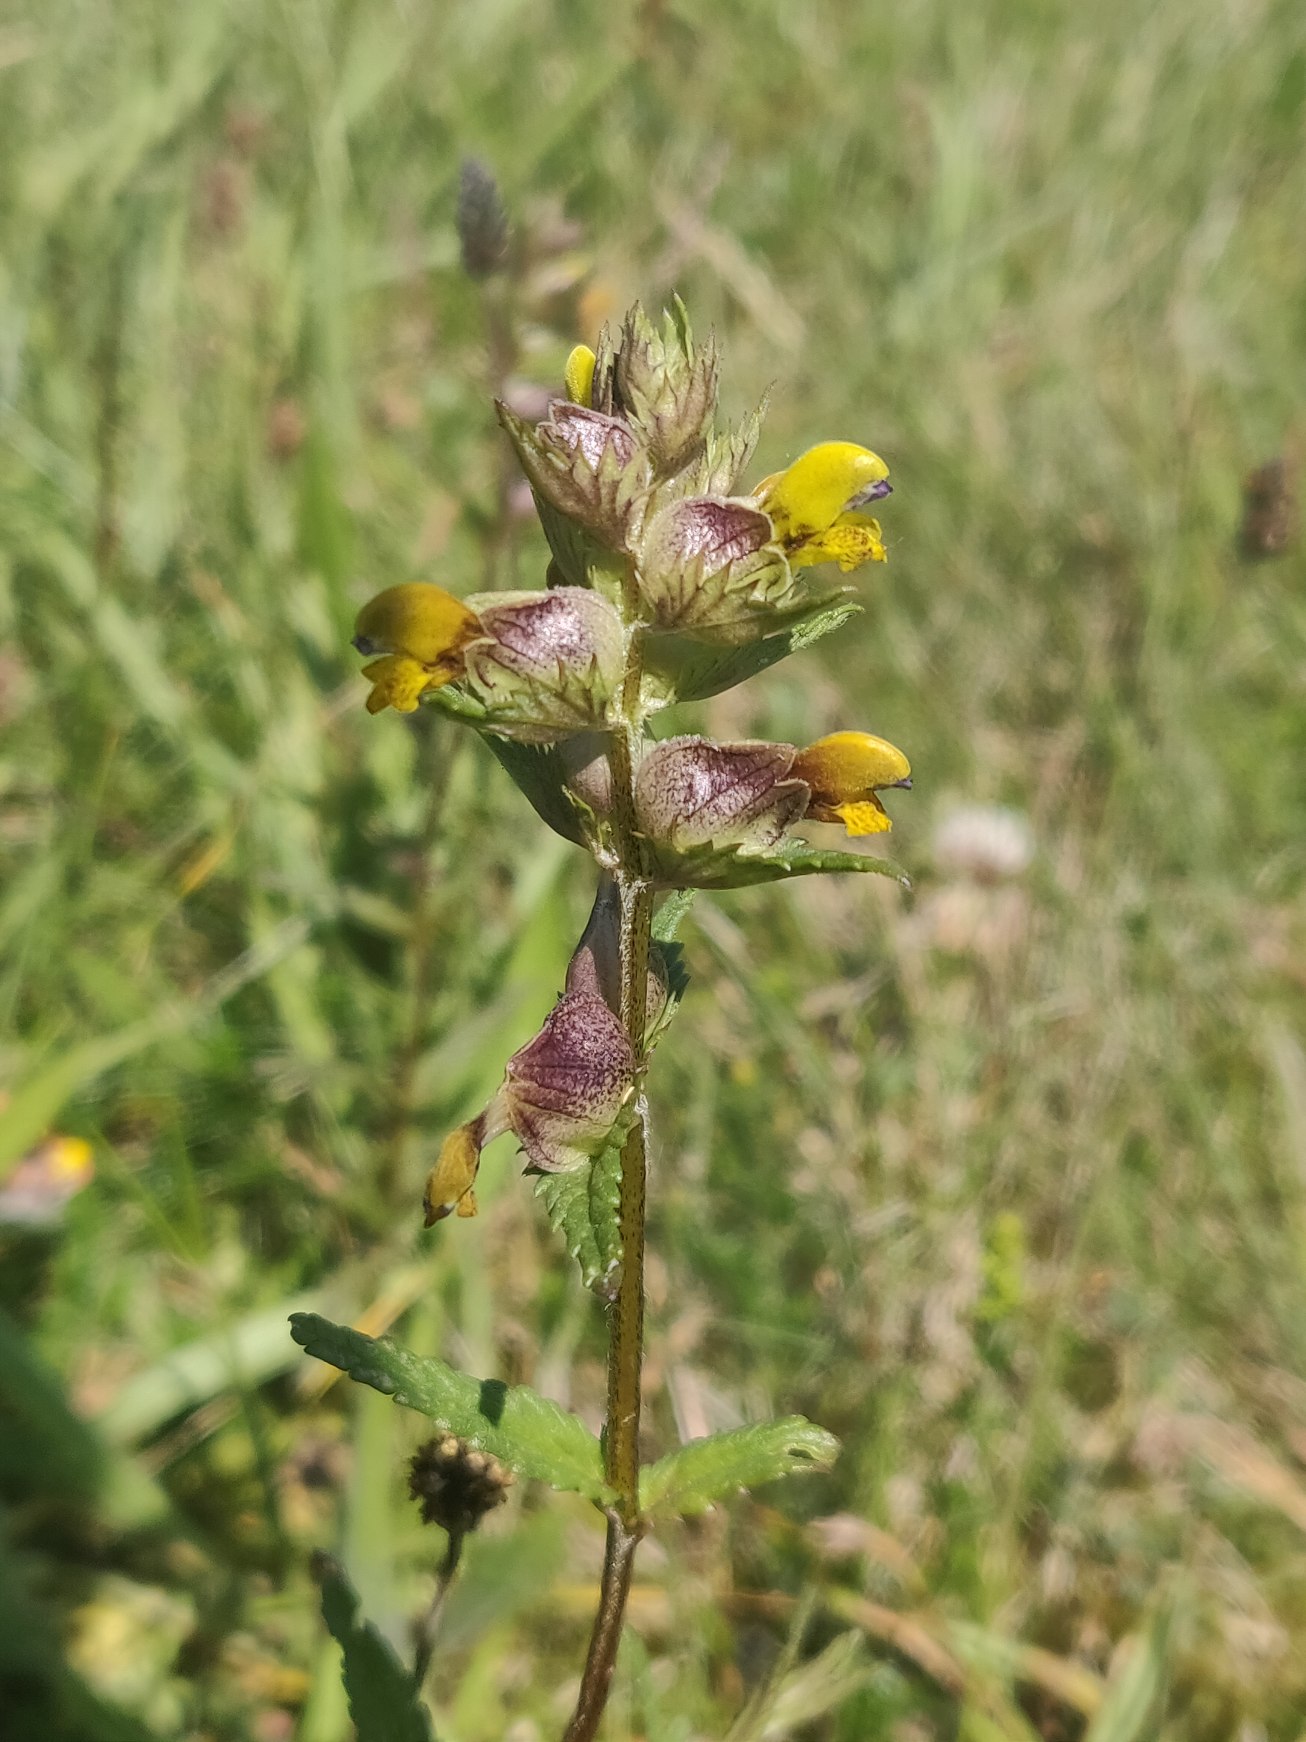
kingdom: Plantae
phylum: Tracheophyta
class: Magnoliopsida
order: Lamiales
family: Orobanchaceae
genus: Rhinanthus
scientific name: Rhinanthus minor
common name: Liden skjaller
